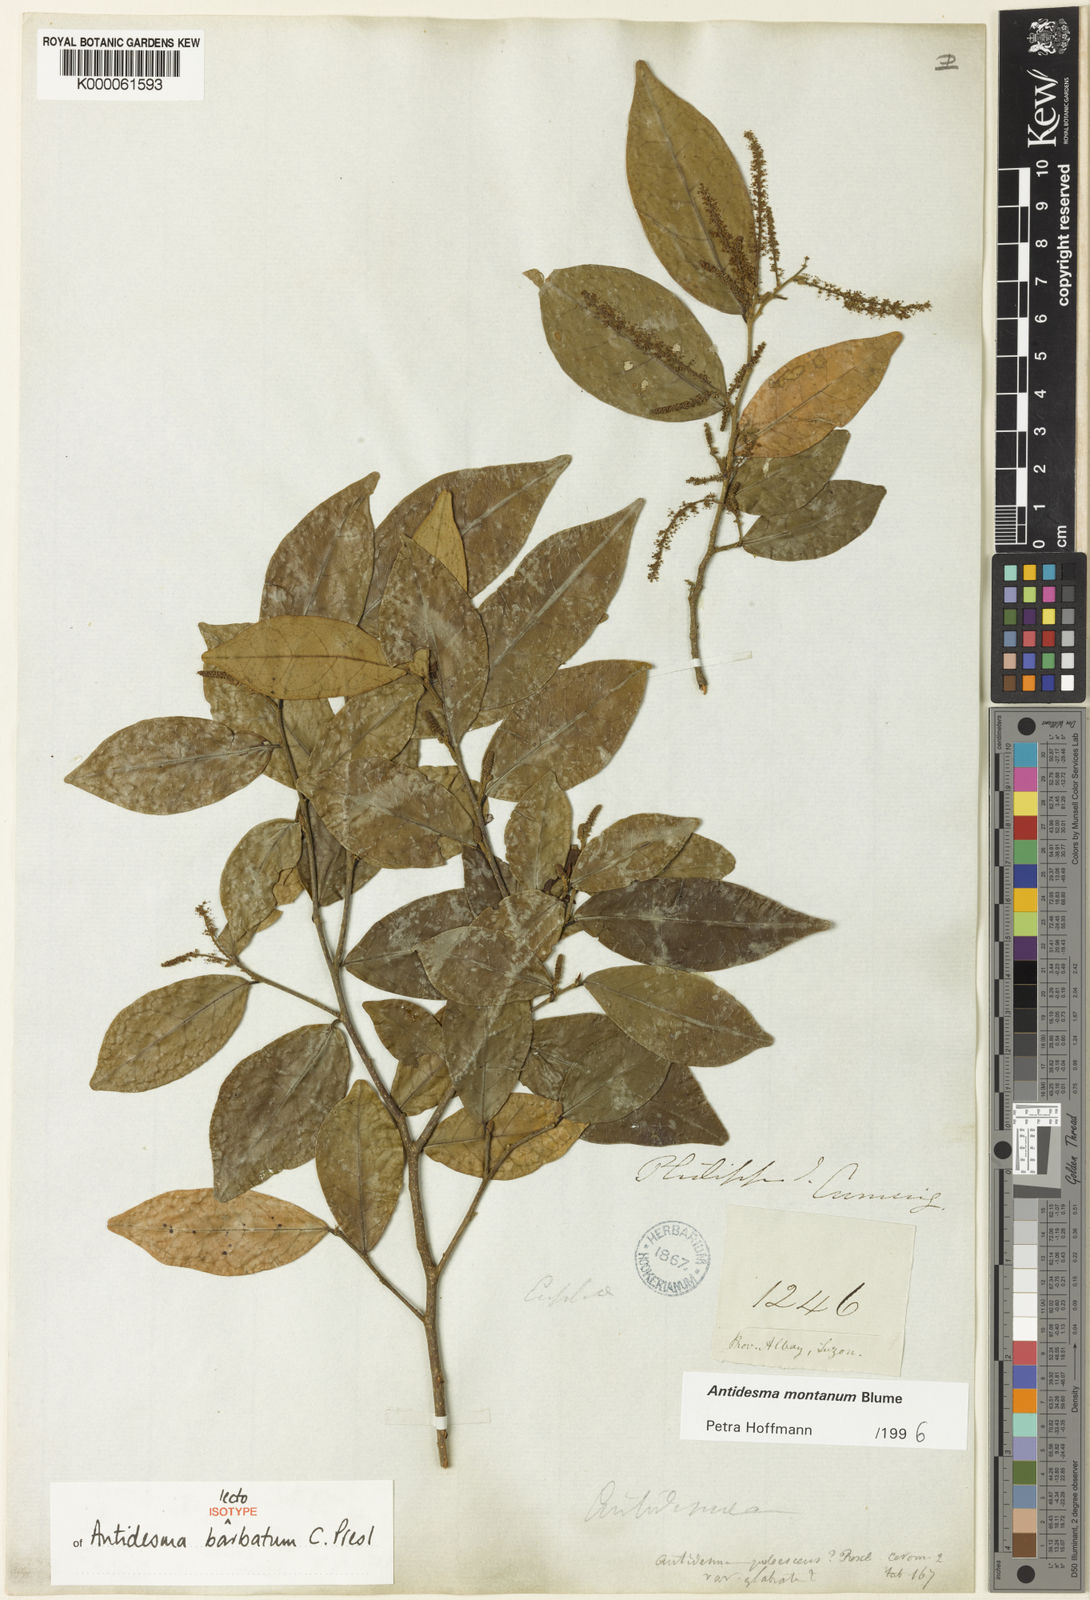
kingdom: Plantae
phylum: Tracheophyta
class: Magnoliopsida
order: Malpighiales
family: Phyllanthaceae
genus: Antidesma
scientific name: Antidesma montanum
